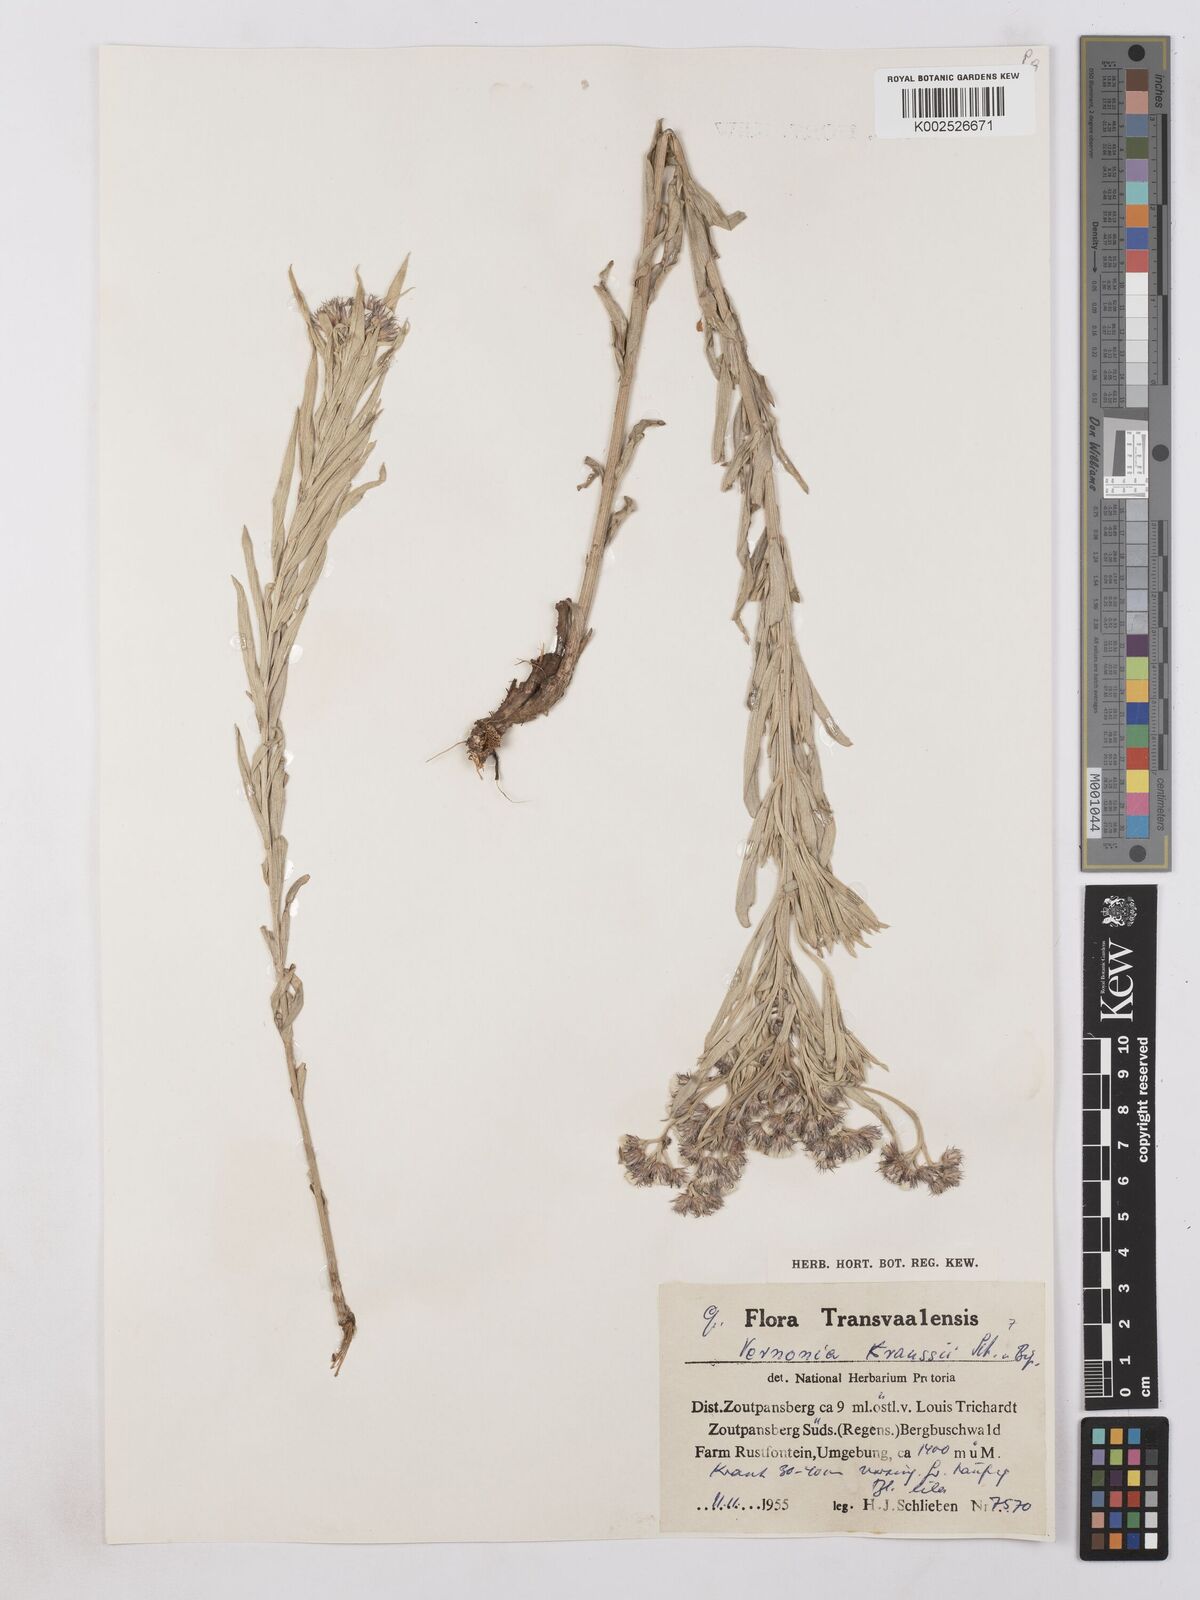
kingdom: Plantae
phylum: Tracheophyta
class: Magnoliopsida
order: Asterales
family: Asteraceae
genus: Hilliardiella
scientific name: Hilliardiella oligocephala
